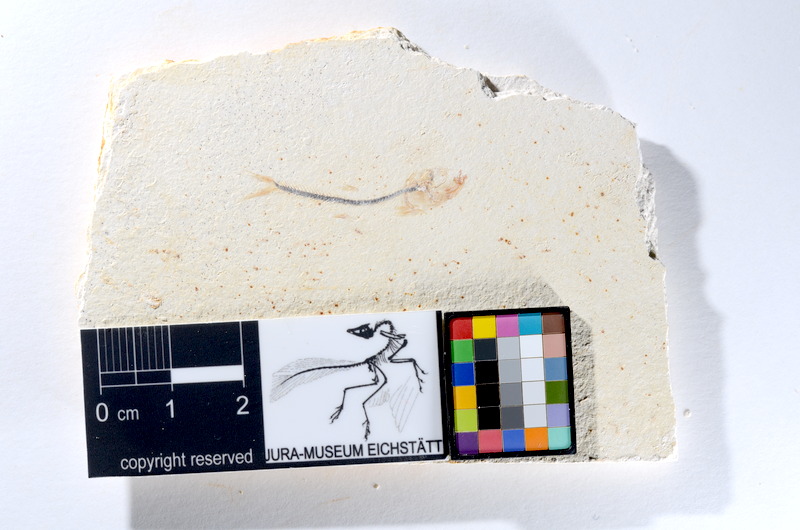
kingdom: Animalia
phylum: Chordata
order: Salmoniformes
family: Orthogonikleithridae
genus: Orthogonikleithrus
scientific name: Orthogonikleithrus hoelli
